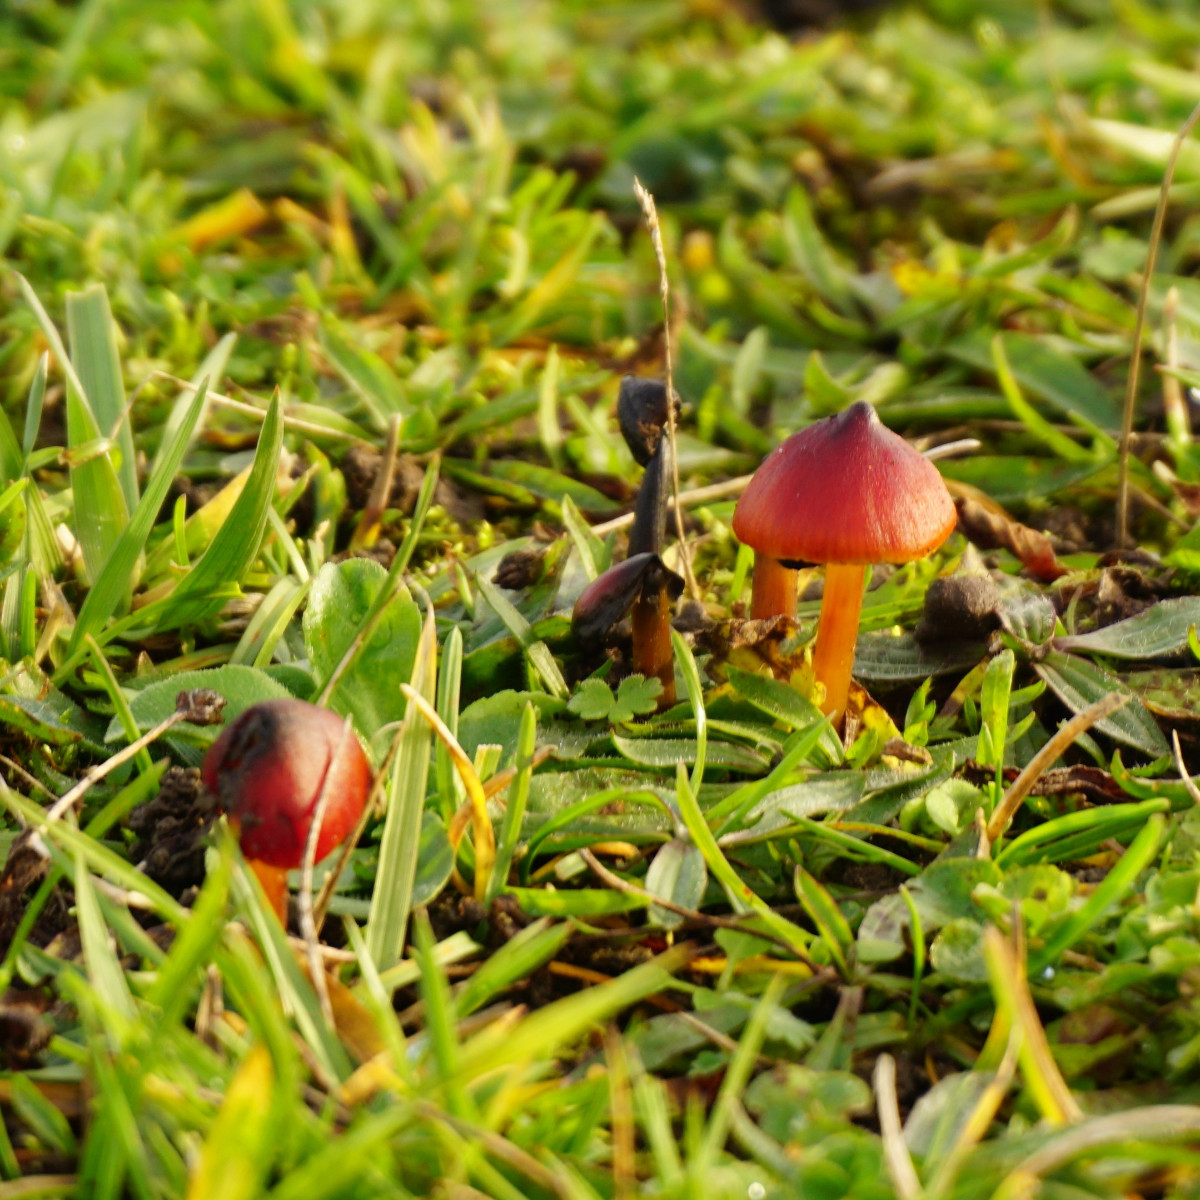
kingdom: Fungi
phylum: Basidiomycota
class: Agaricomycetes
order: Agaricales
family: Hygrophoraceae
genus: Hygrocybe
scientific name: Hygrocybe conica
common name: kegle-vokshat
